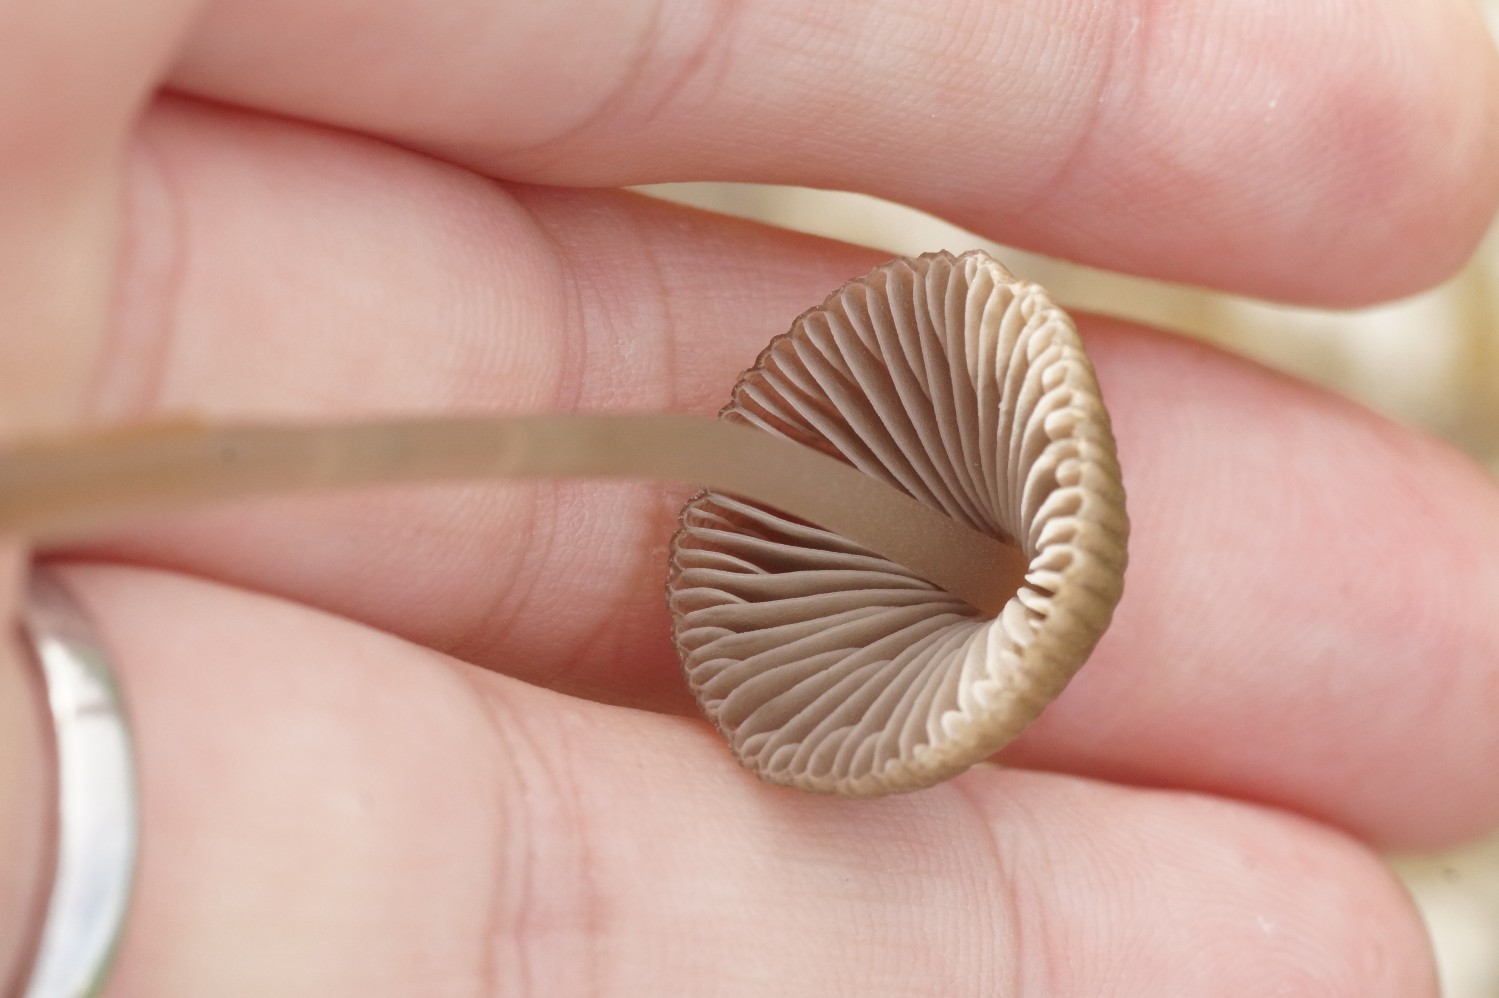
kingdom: Fungi
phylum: Basidiomycota
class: Agaricomycetes
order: Agaricales
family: Mycenaceae
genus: Mycena
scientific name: Mycena aetites
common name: plæne-huesvamp
